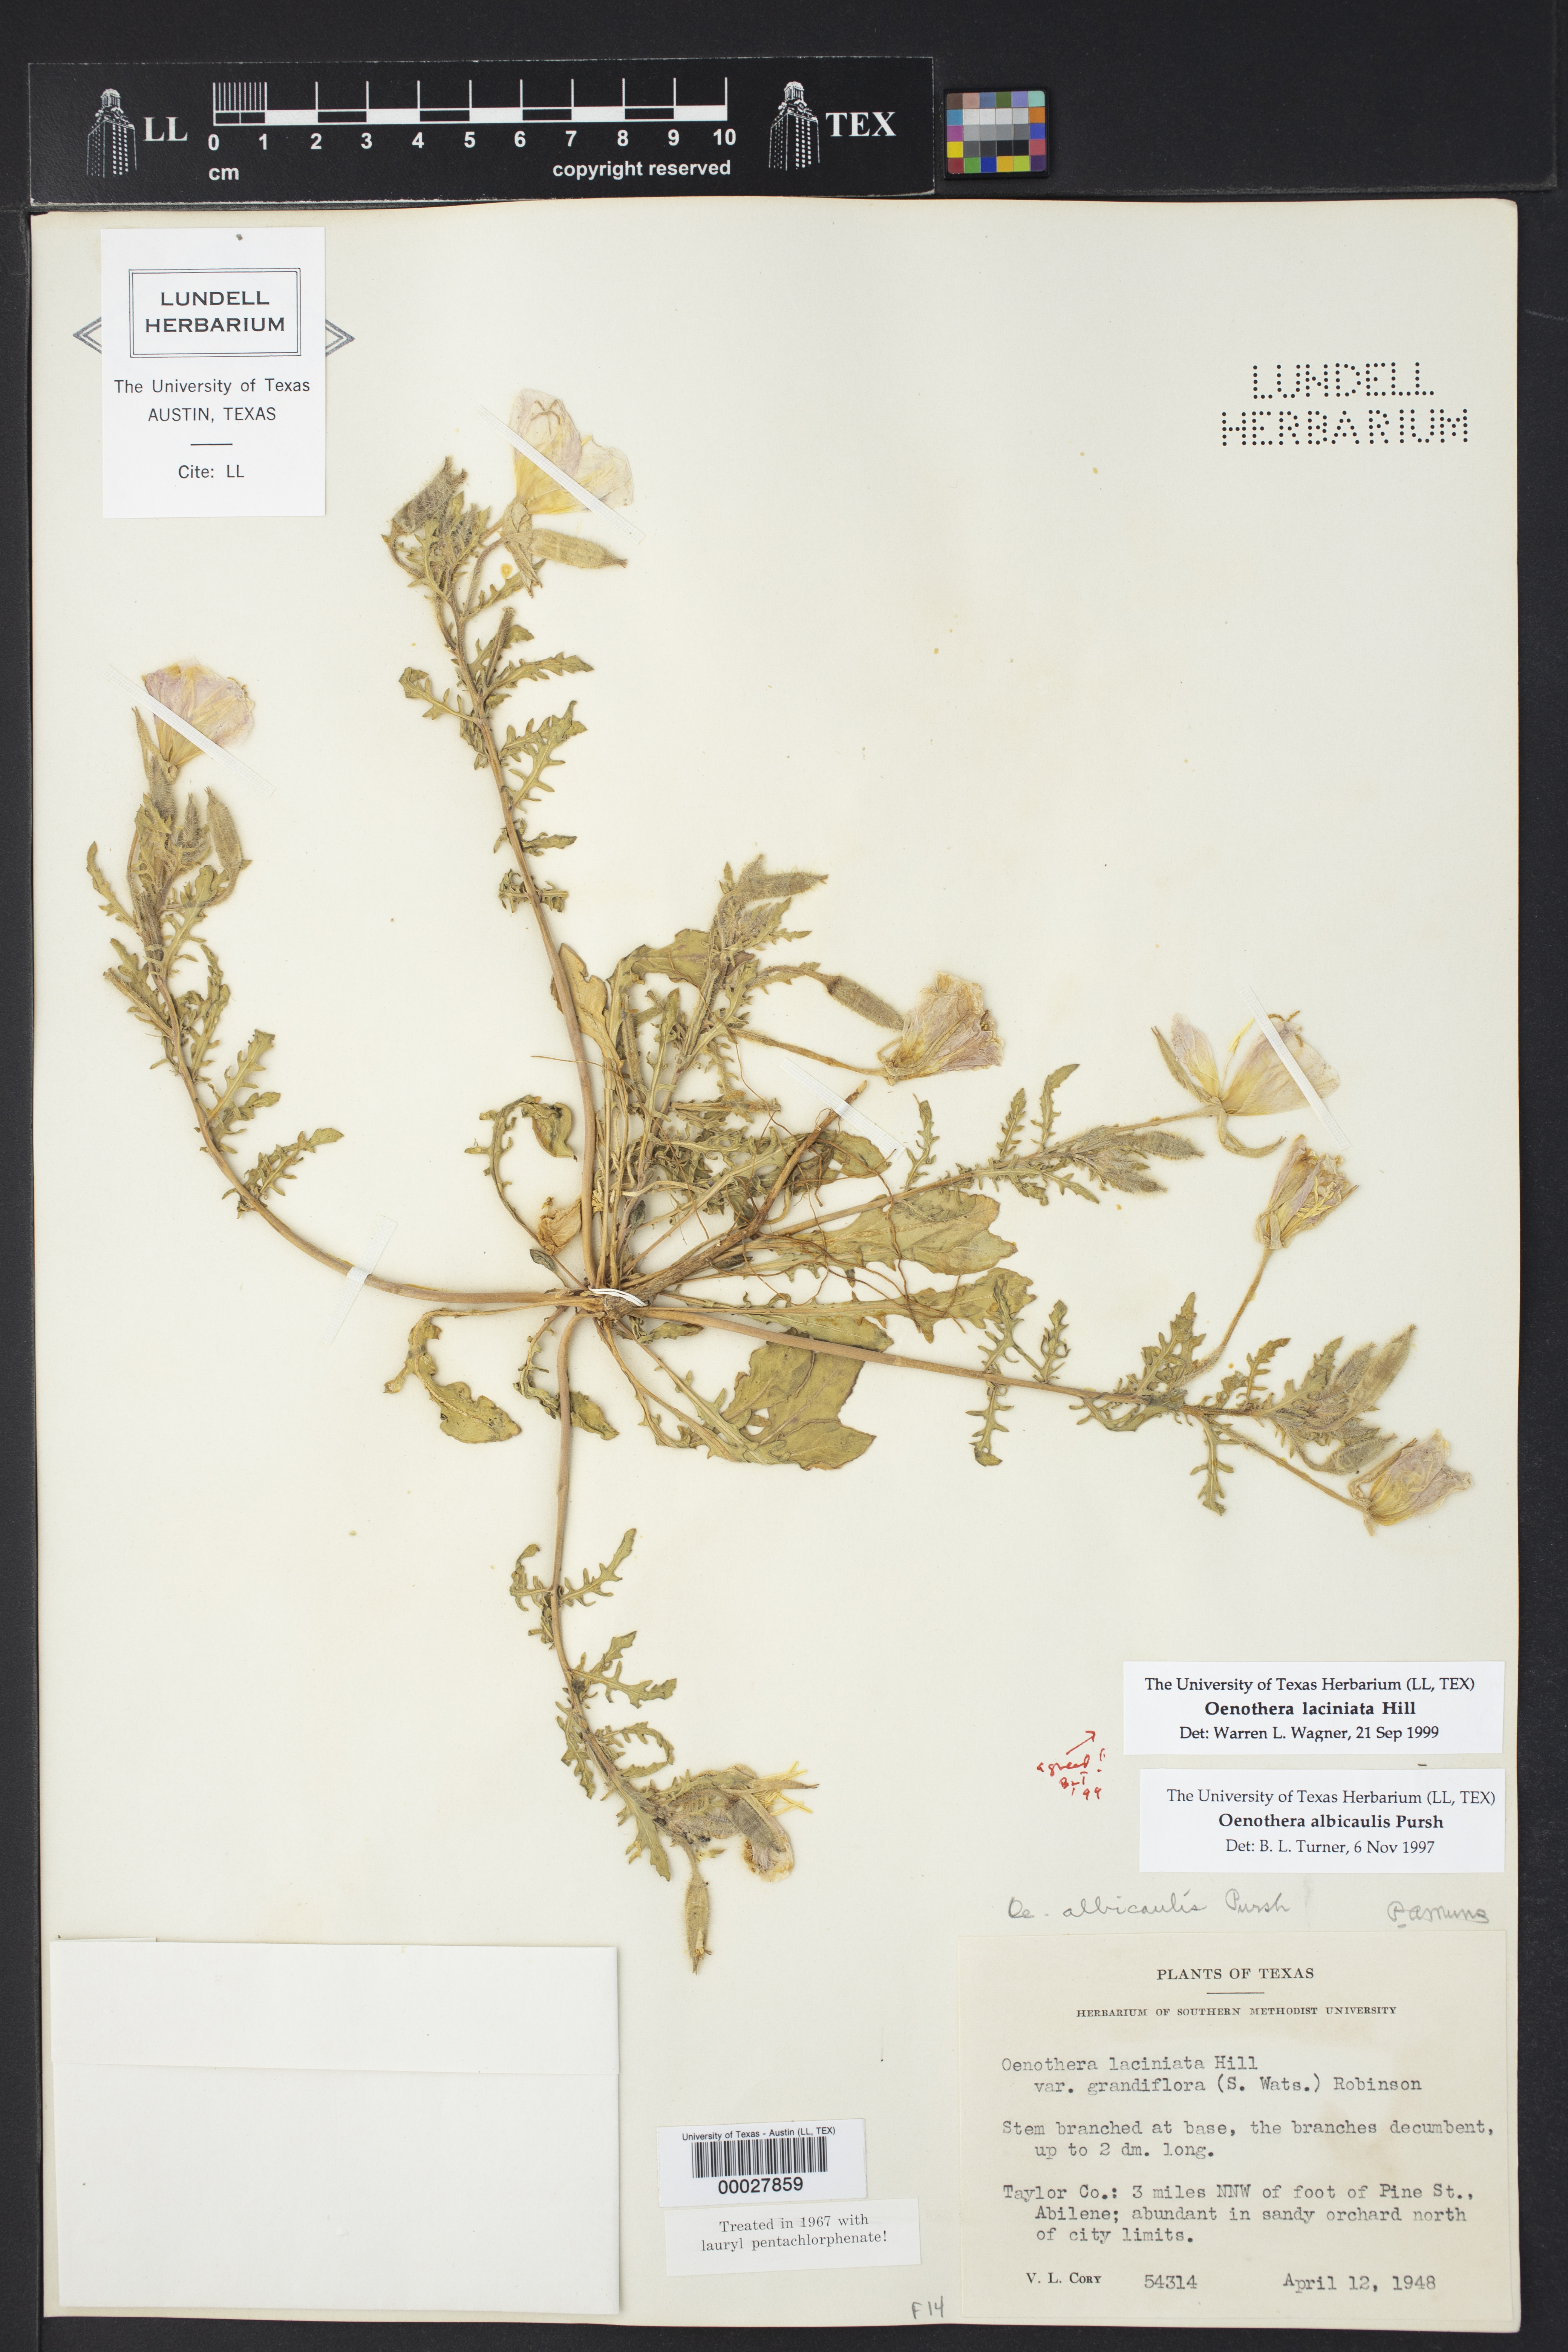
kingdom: Plantae
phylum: Tracheophyta
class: Magnoliopsida
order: Myrtales
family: Onagraceae
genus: Oenothera
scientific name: Oenothera laciniata
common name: Cut-leaved evening-primrose
